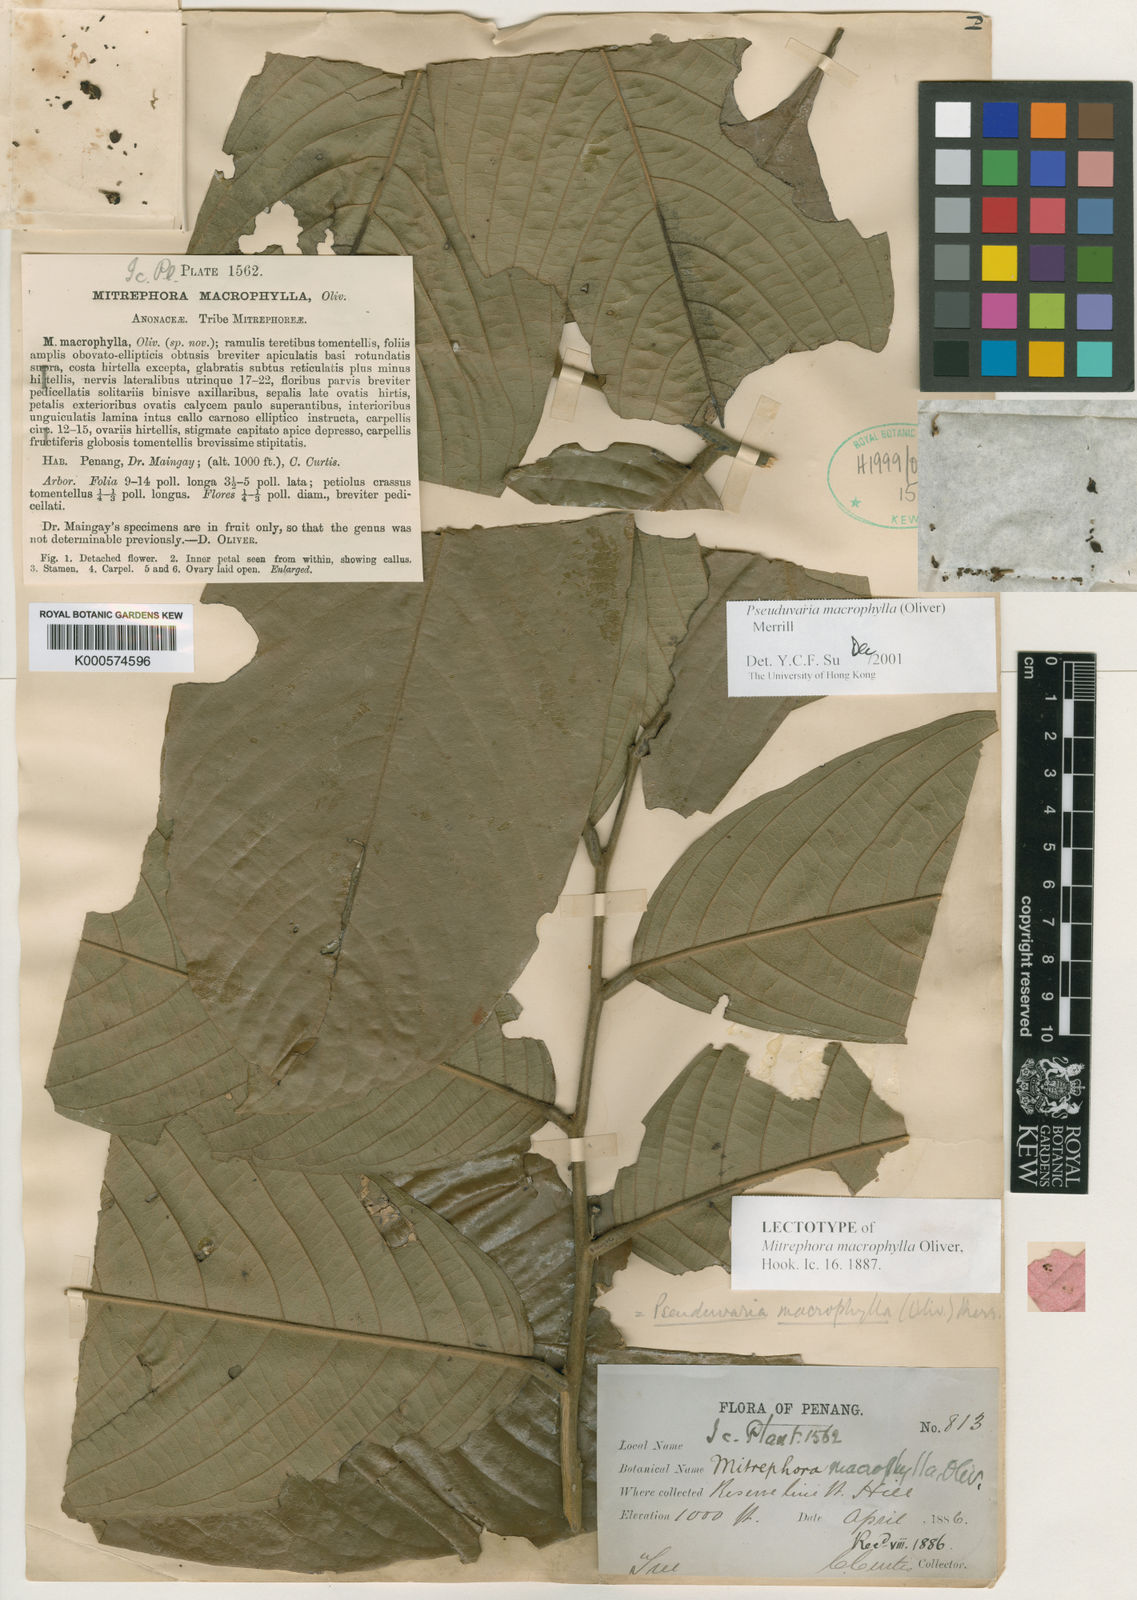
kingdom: Plantae
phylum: Tracheophyta
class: Magnoliopsida
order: Magnoliales
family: Annonaceae
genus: Pseuduvaria
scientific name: Pseuduvaria macrophylla
